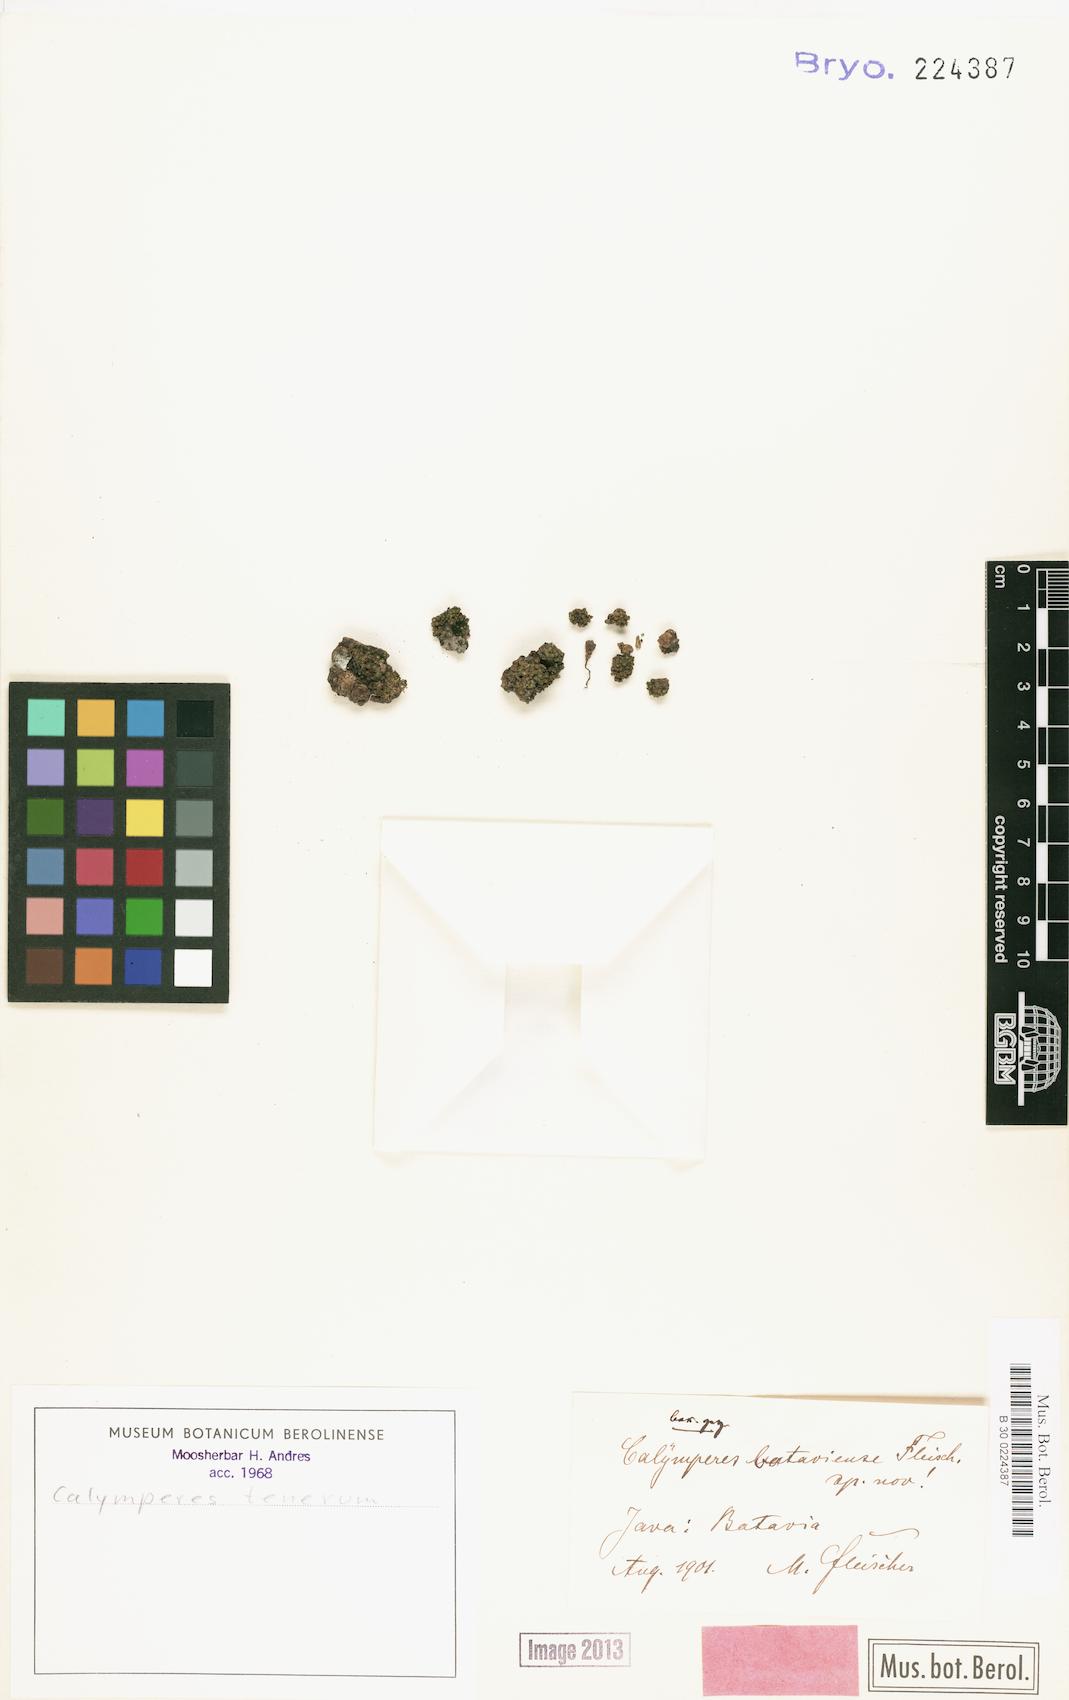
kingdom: Plantae
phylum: Bryophyta
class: Bryopsida
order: Dicranales
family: Calymperaceae
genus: Calymperes
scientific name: Calymperes tenerum
